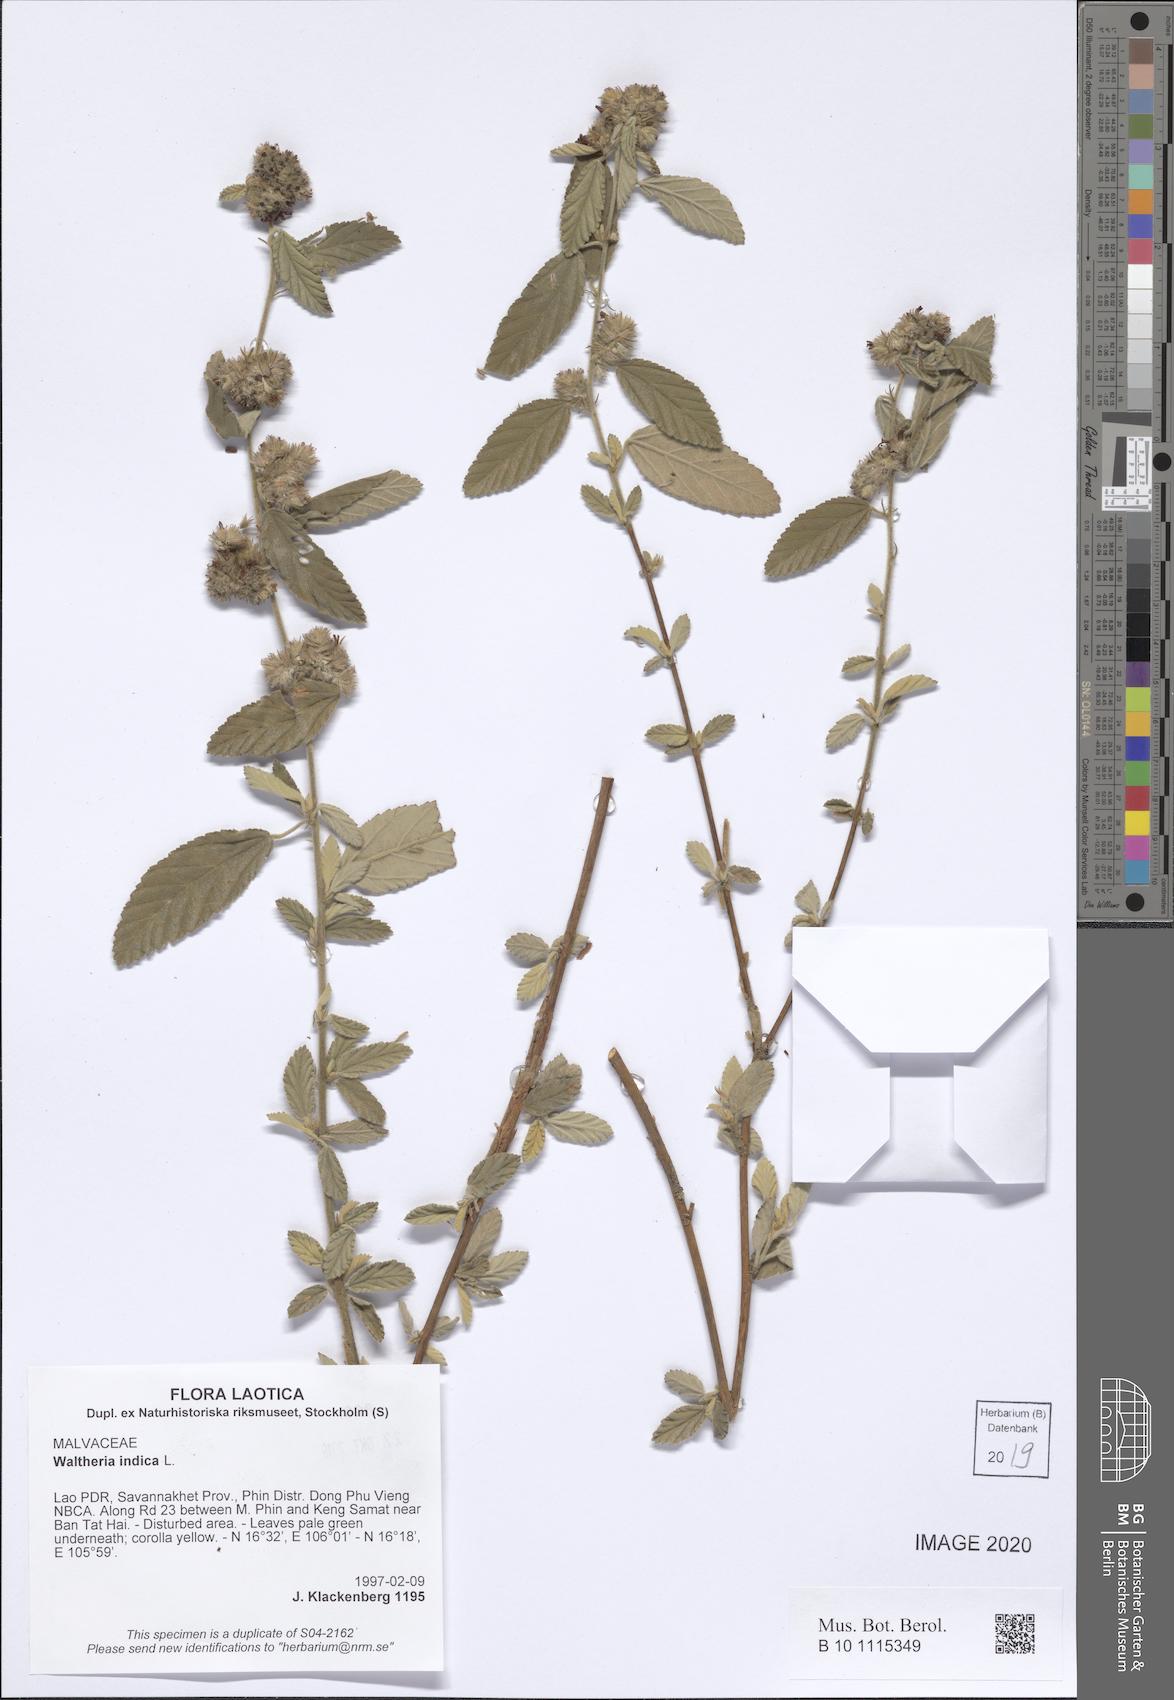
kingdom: Plantae
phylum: Tracheophyta
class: Magnoliopsida
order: Malvales
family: Malvaceae
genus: Waltheria
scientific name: Waltheria indica
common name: Leather-coat
